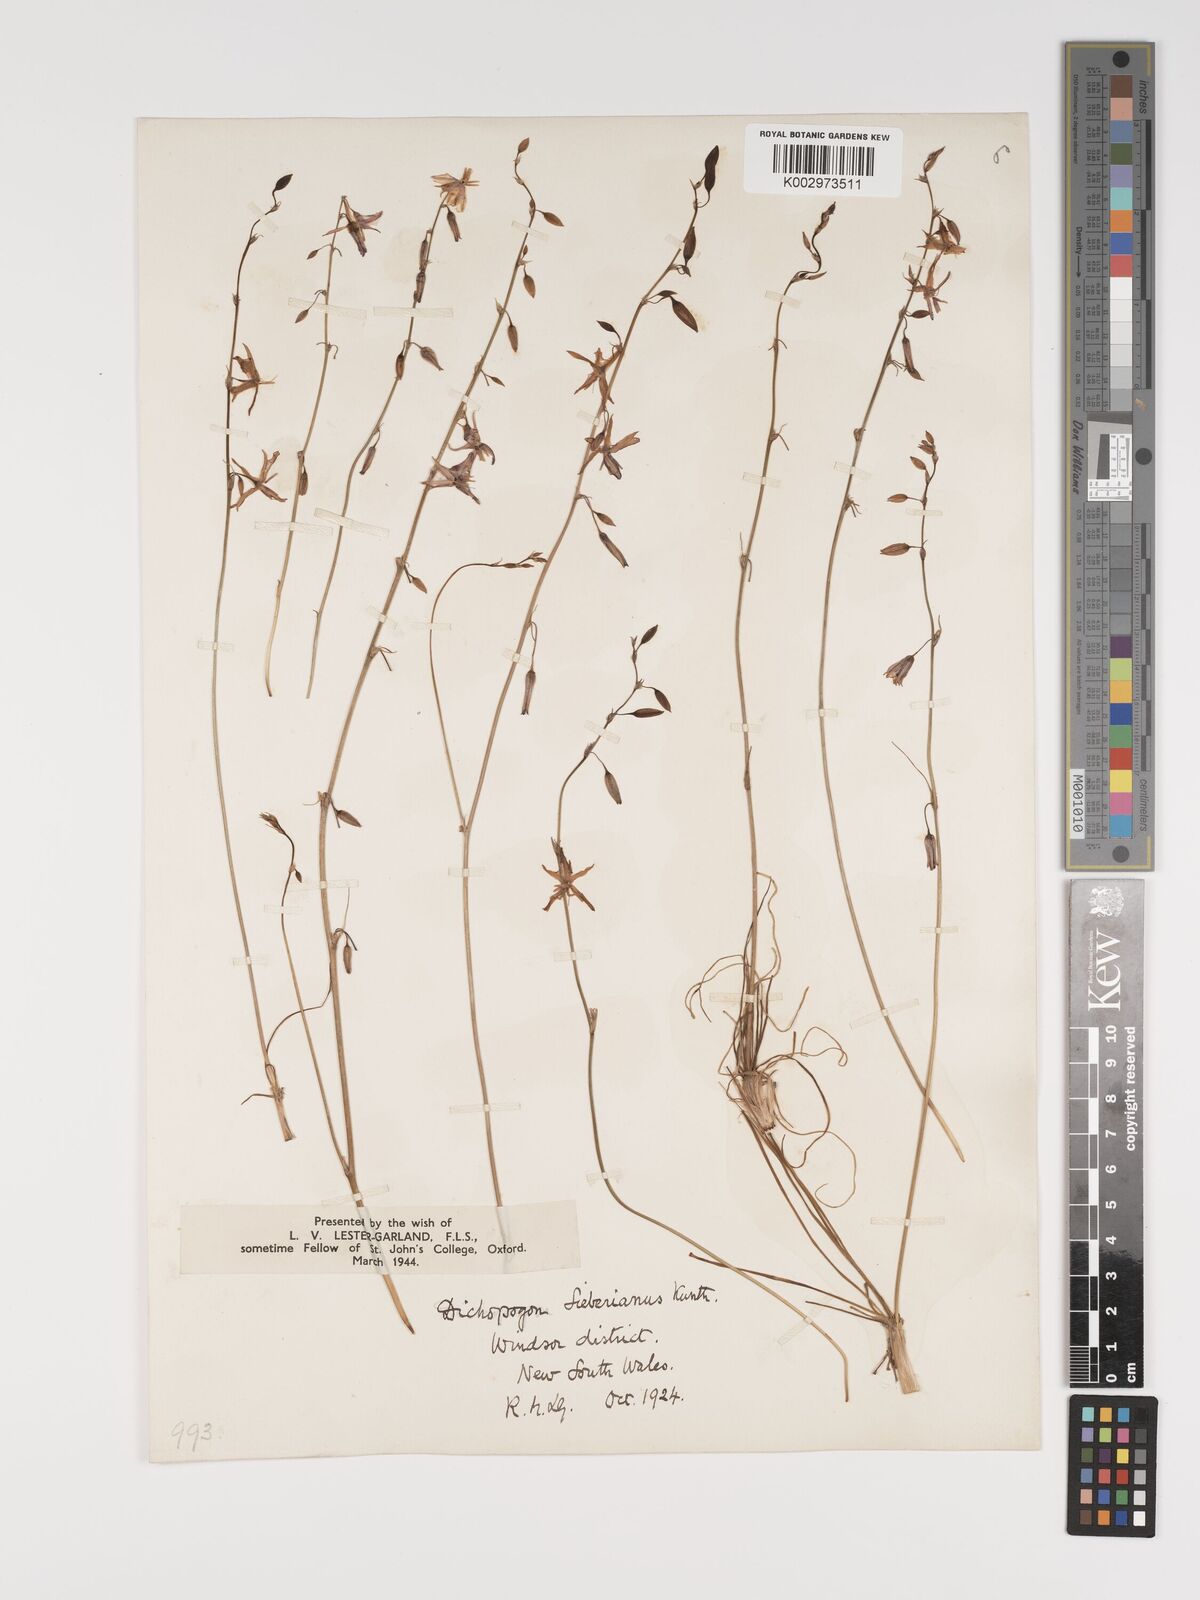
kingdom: Plantae
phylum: Tracheophyta
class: Liliopsida
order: Asparagales
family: Asparagaceae
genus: Dichopogon
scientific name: Dichopogon fimbriatus
